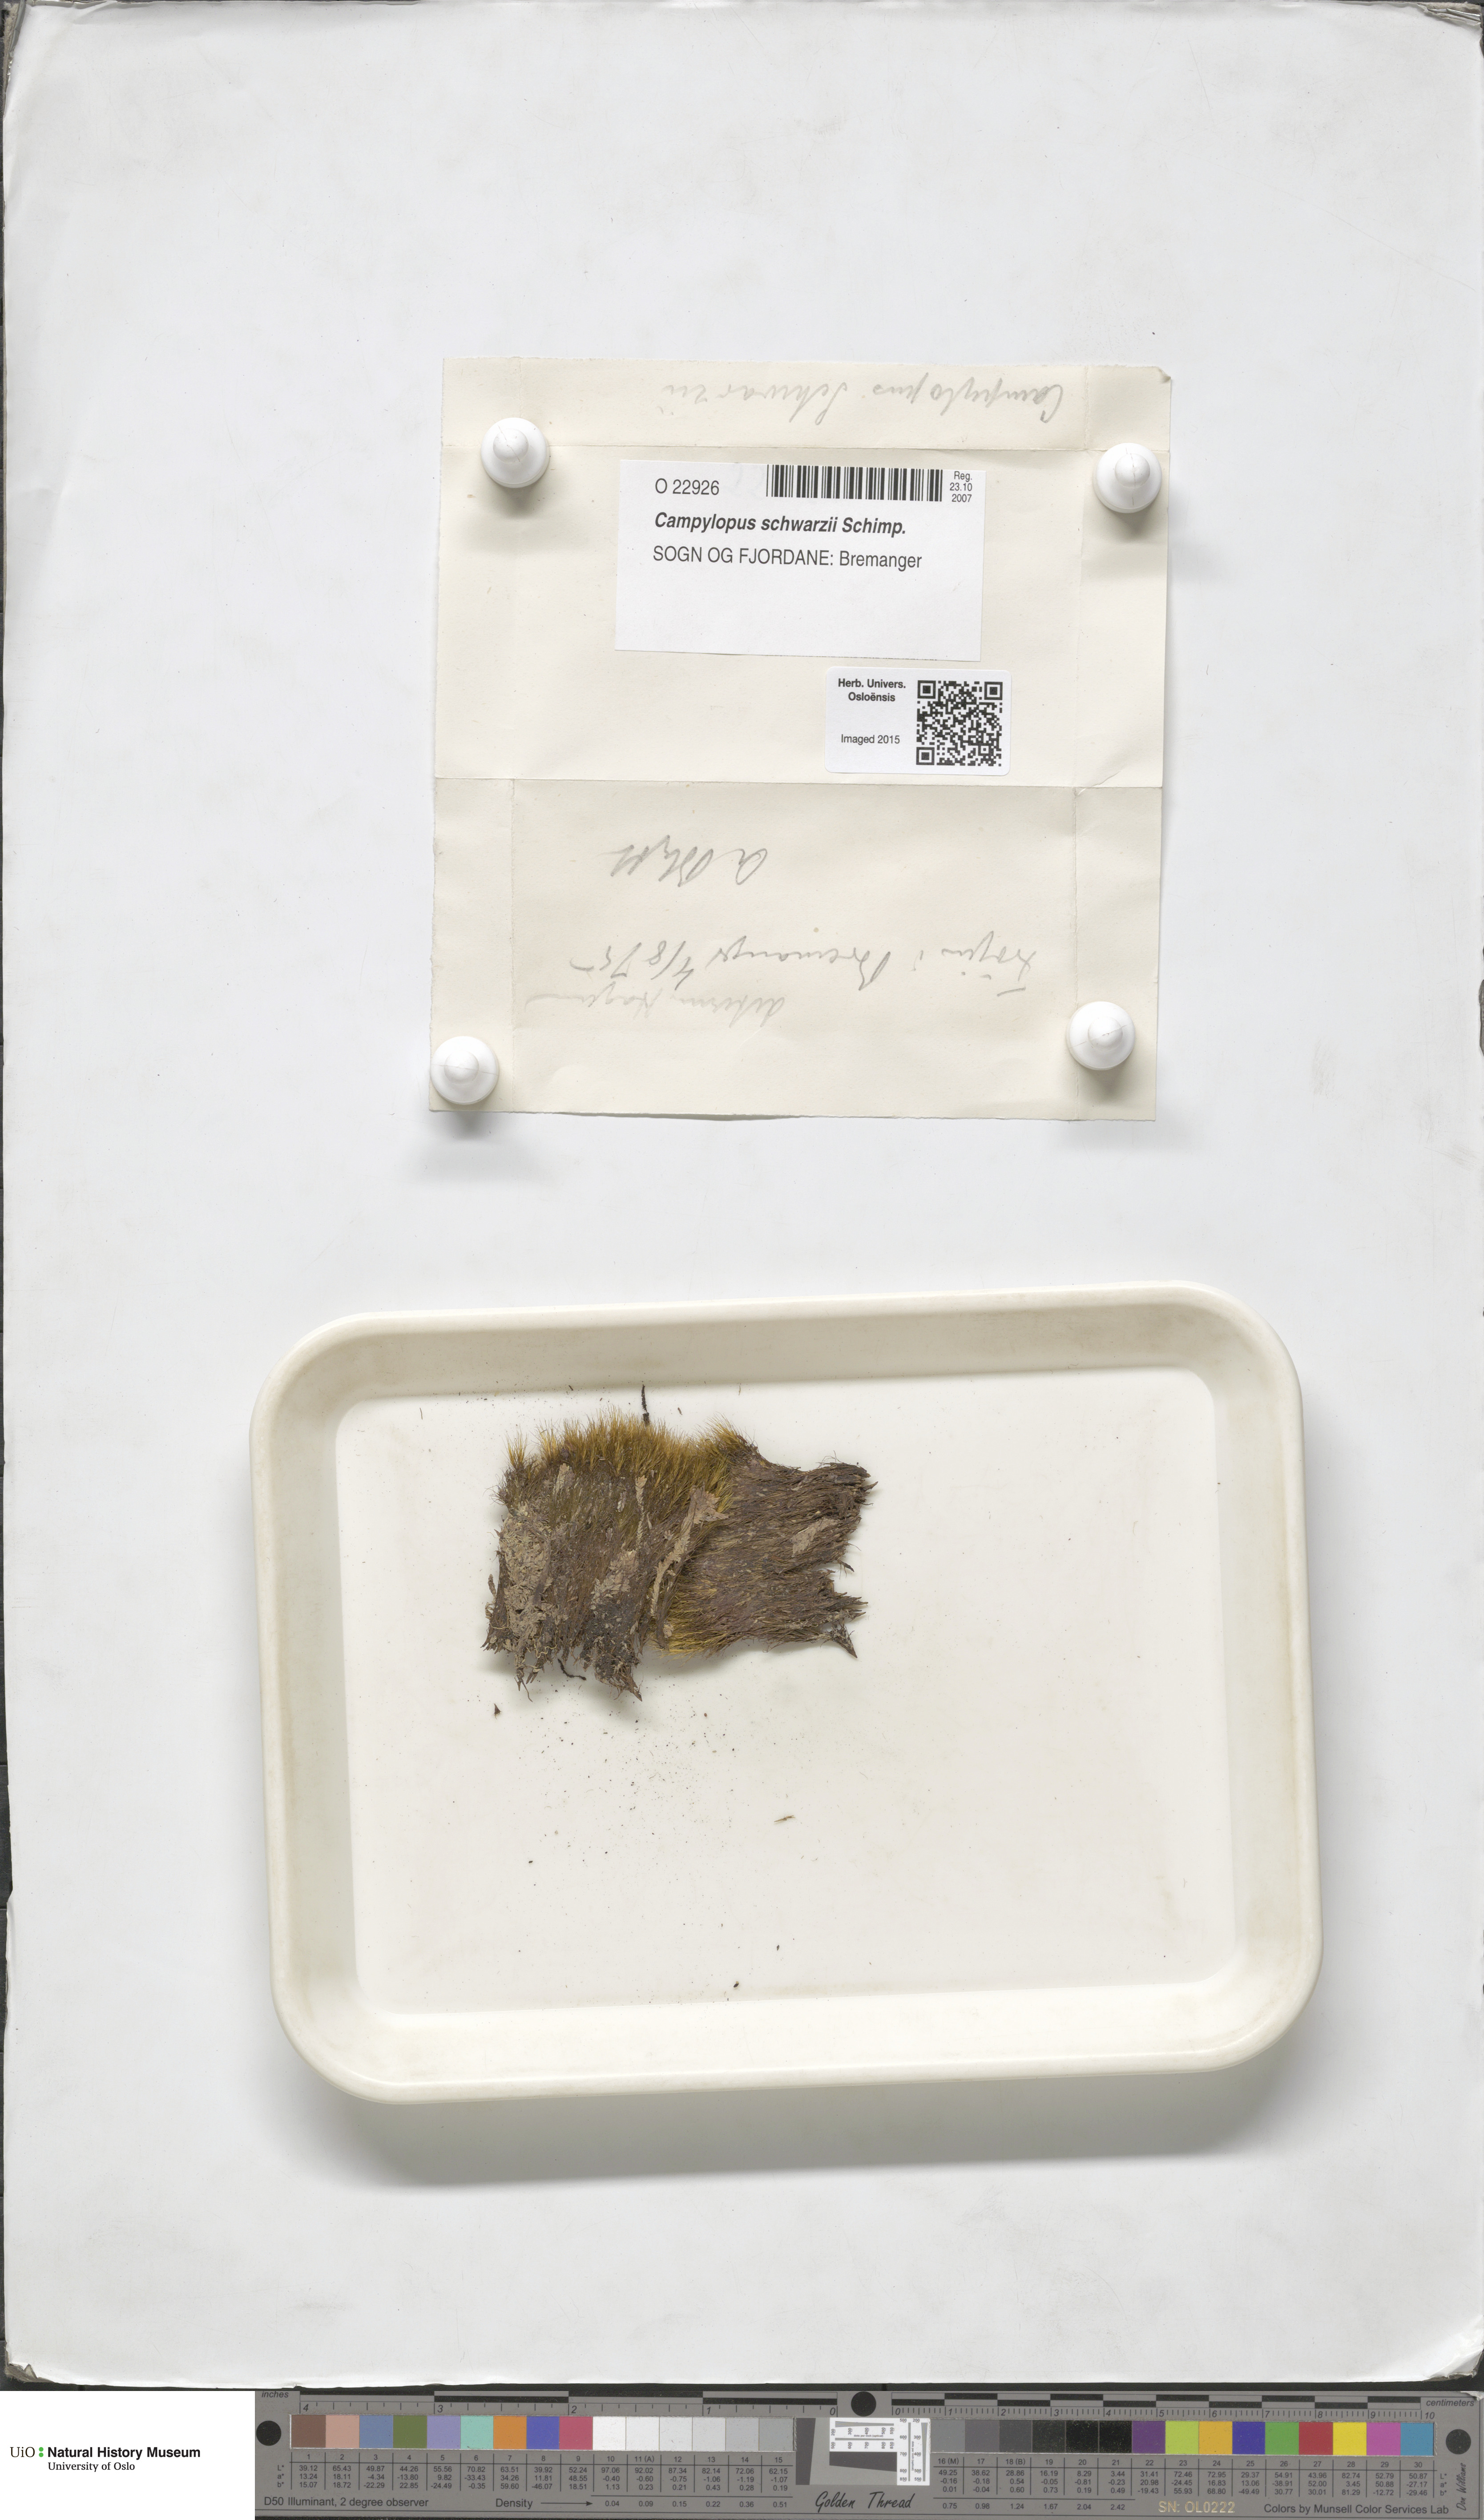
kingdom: Plantae
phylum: Bryophyta
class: Bryopsida
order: Dicranales
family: Leucobryaceae
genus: Campylopus
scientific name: Campylopus gracilis
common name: Schwarz's swan-neck moss
